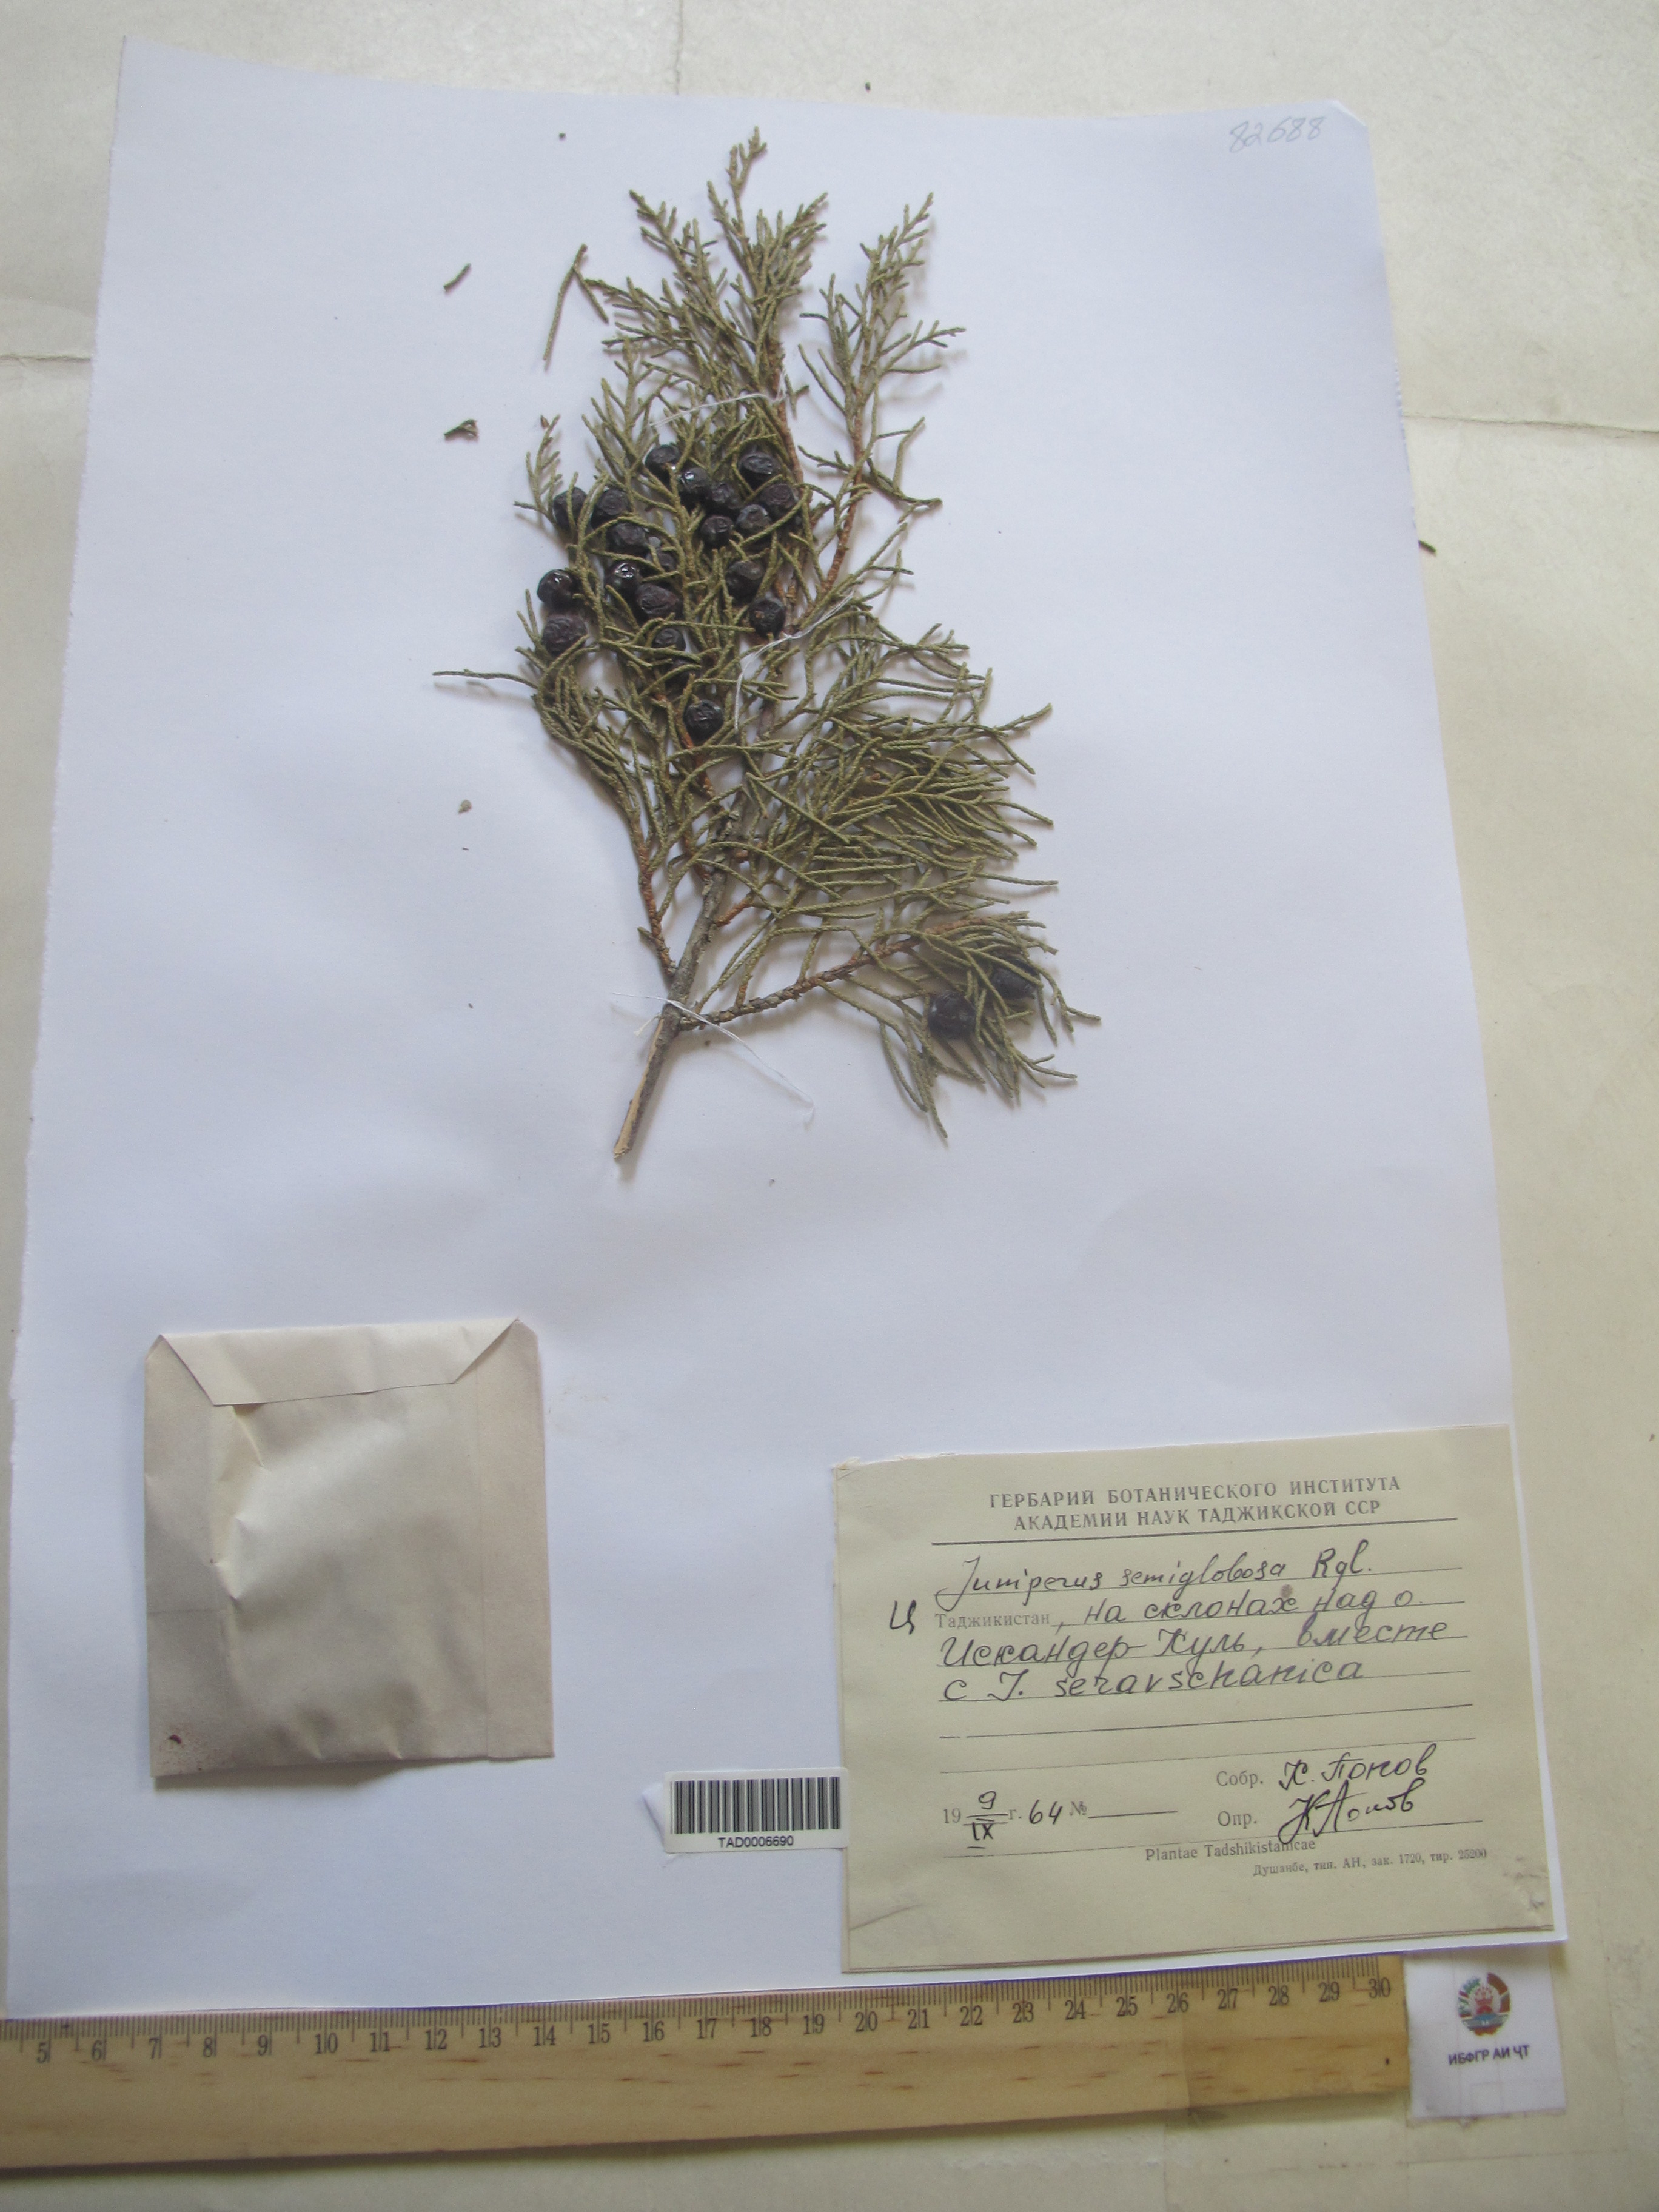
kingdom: Plantae
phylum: Tracheophyta
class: Pinopsida
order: Pinales
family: Cupressaceae
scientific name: Cupressaceae
